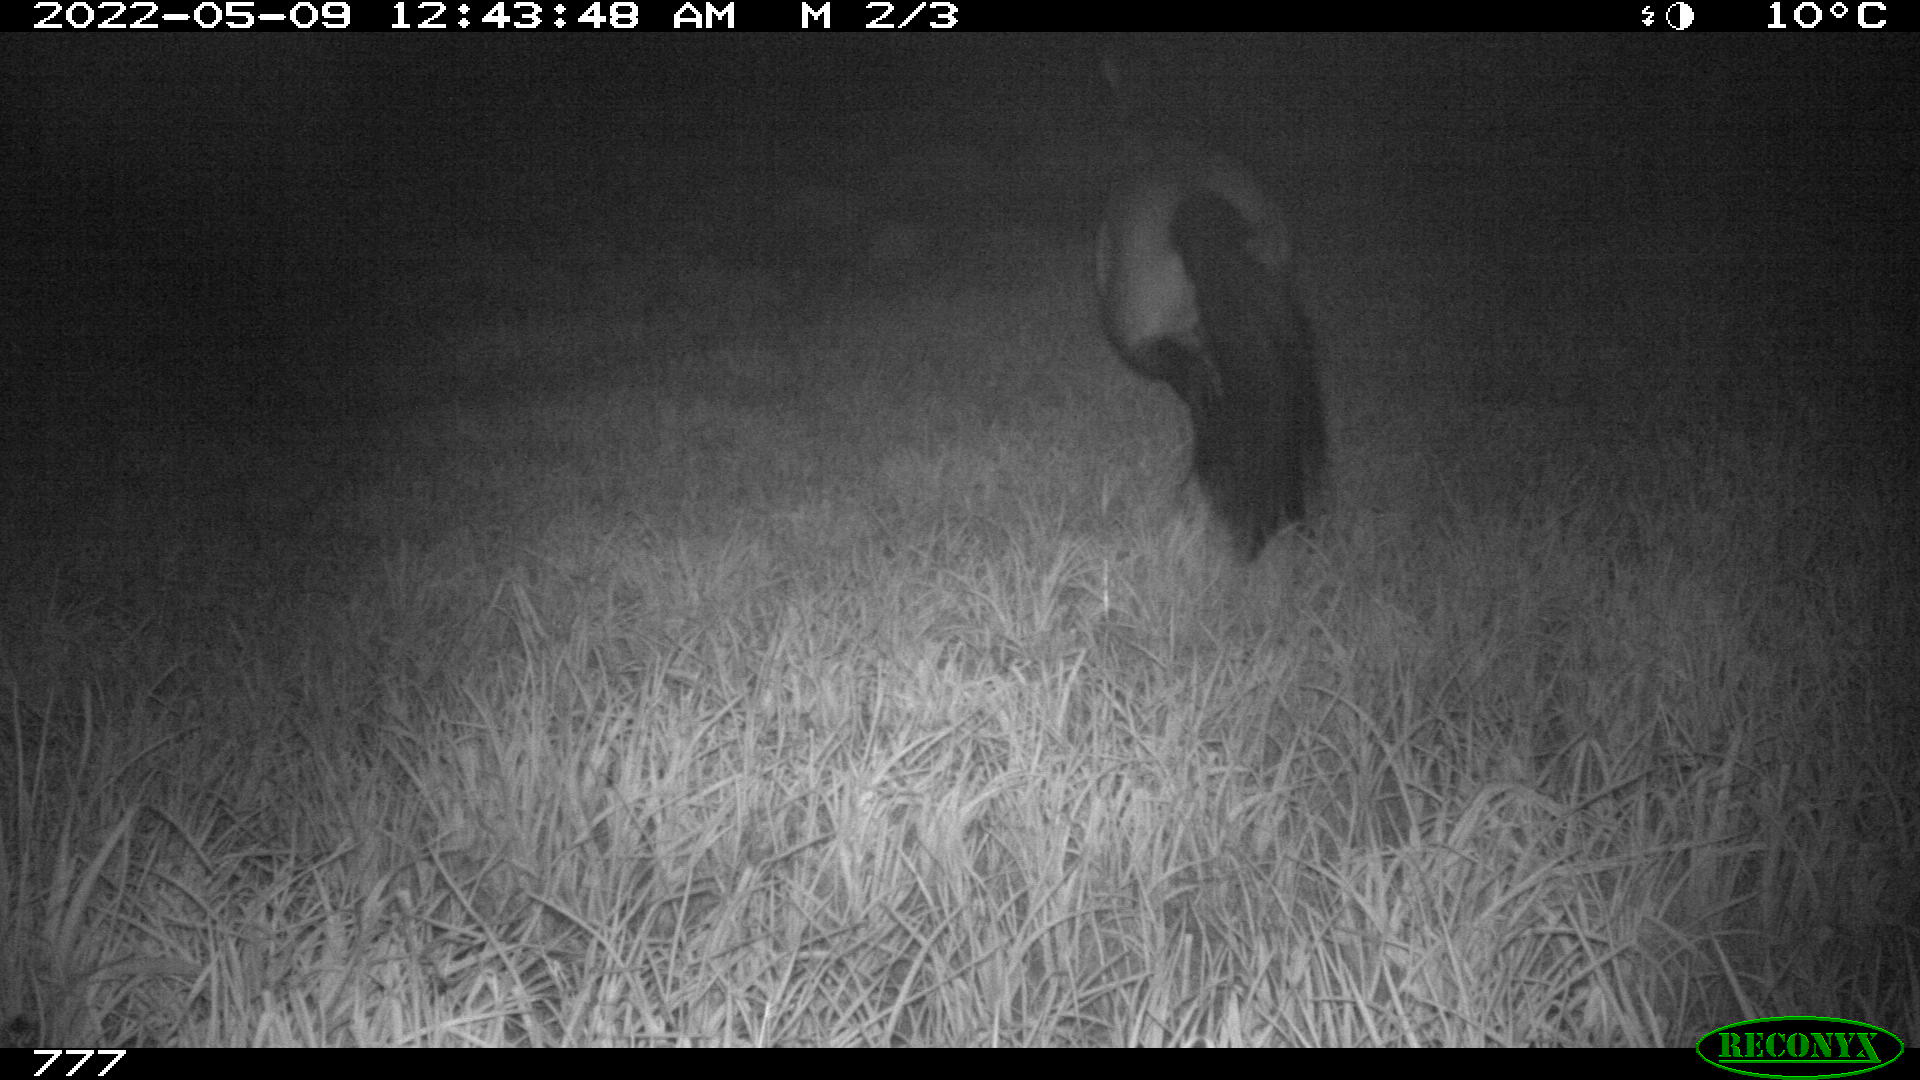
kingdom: Animalia
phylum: Chordata
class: Mammalia
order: Perissodactyla
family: Equidae
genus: Equus
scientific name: Equus caballus
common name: Horse
